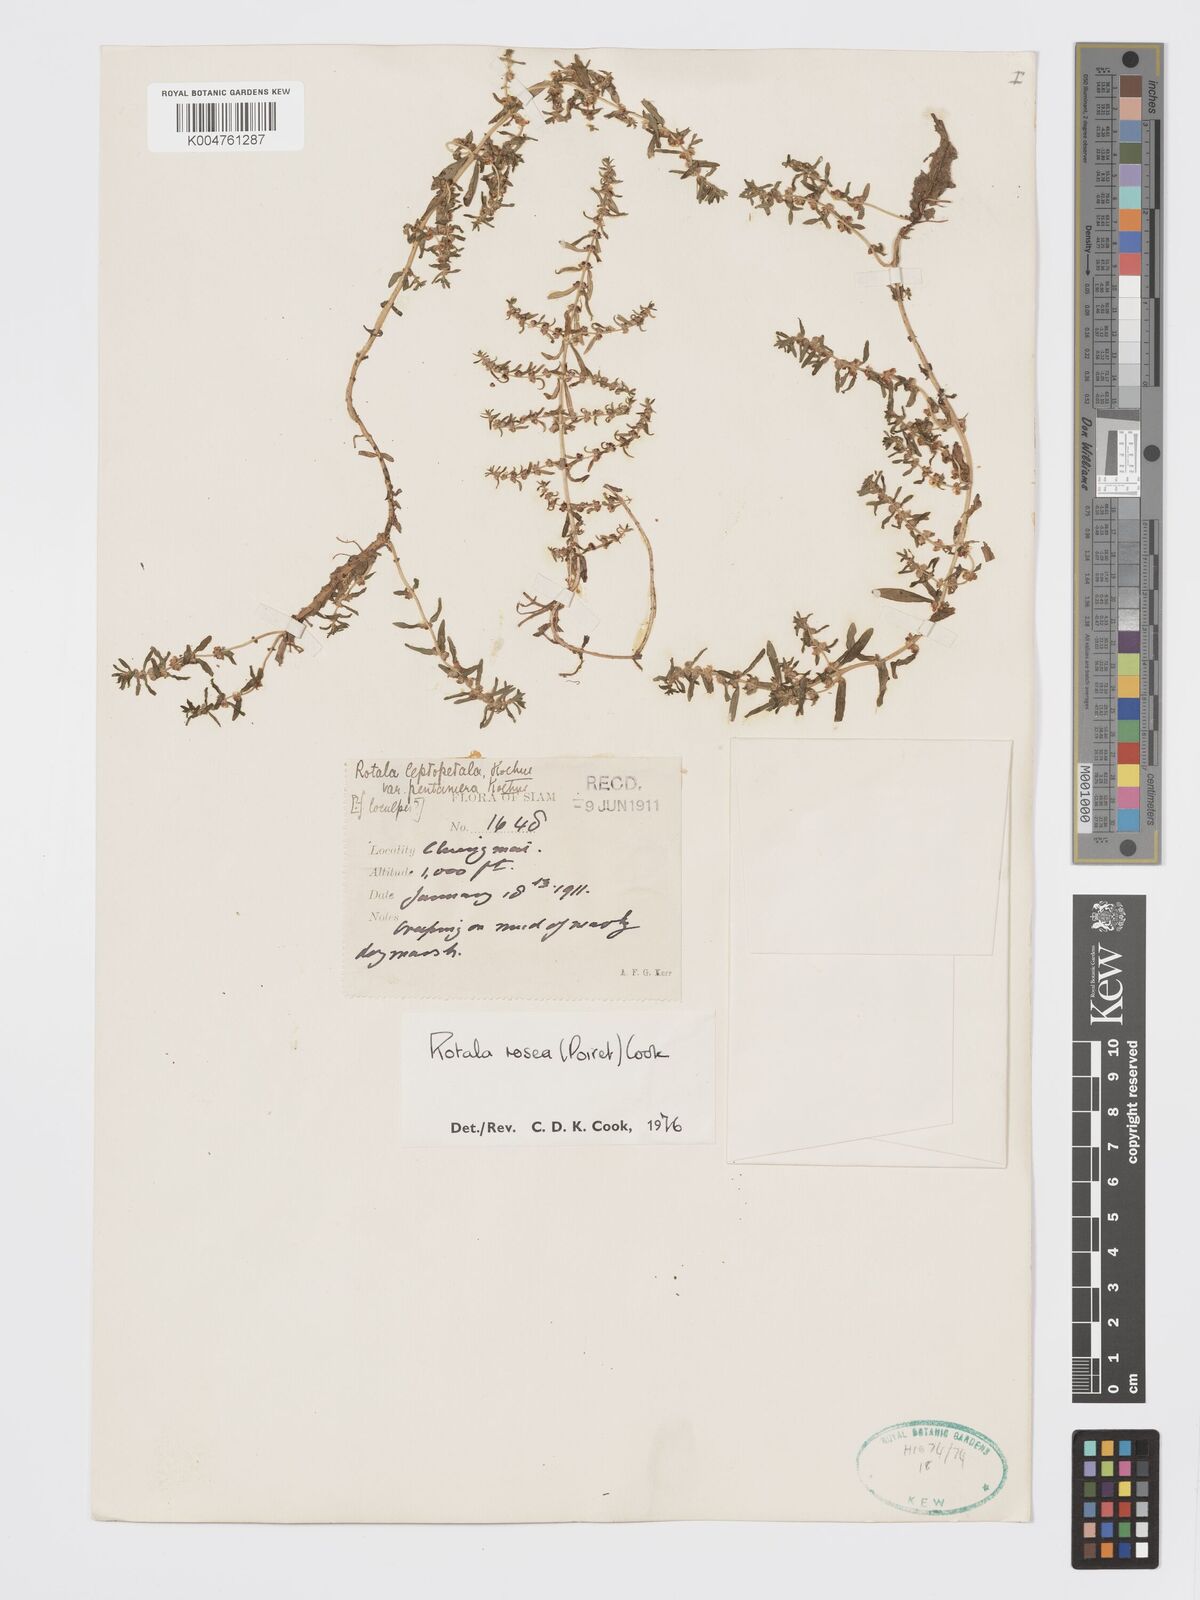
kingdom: Plantae
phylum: Tracheophyta
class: Magnoliopsida
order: Myrtales
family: Lythraceae
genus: Rotala
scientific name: Rotala rosea
